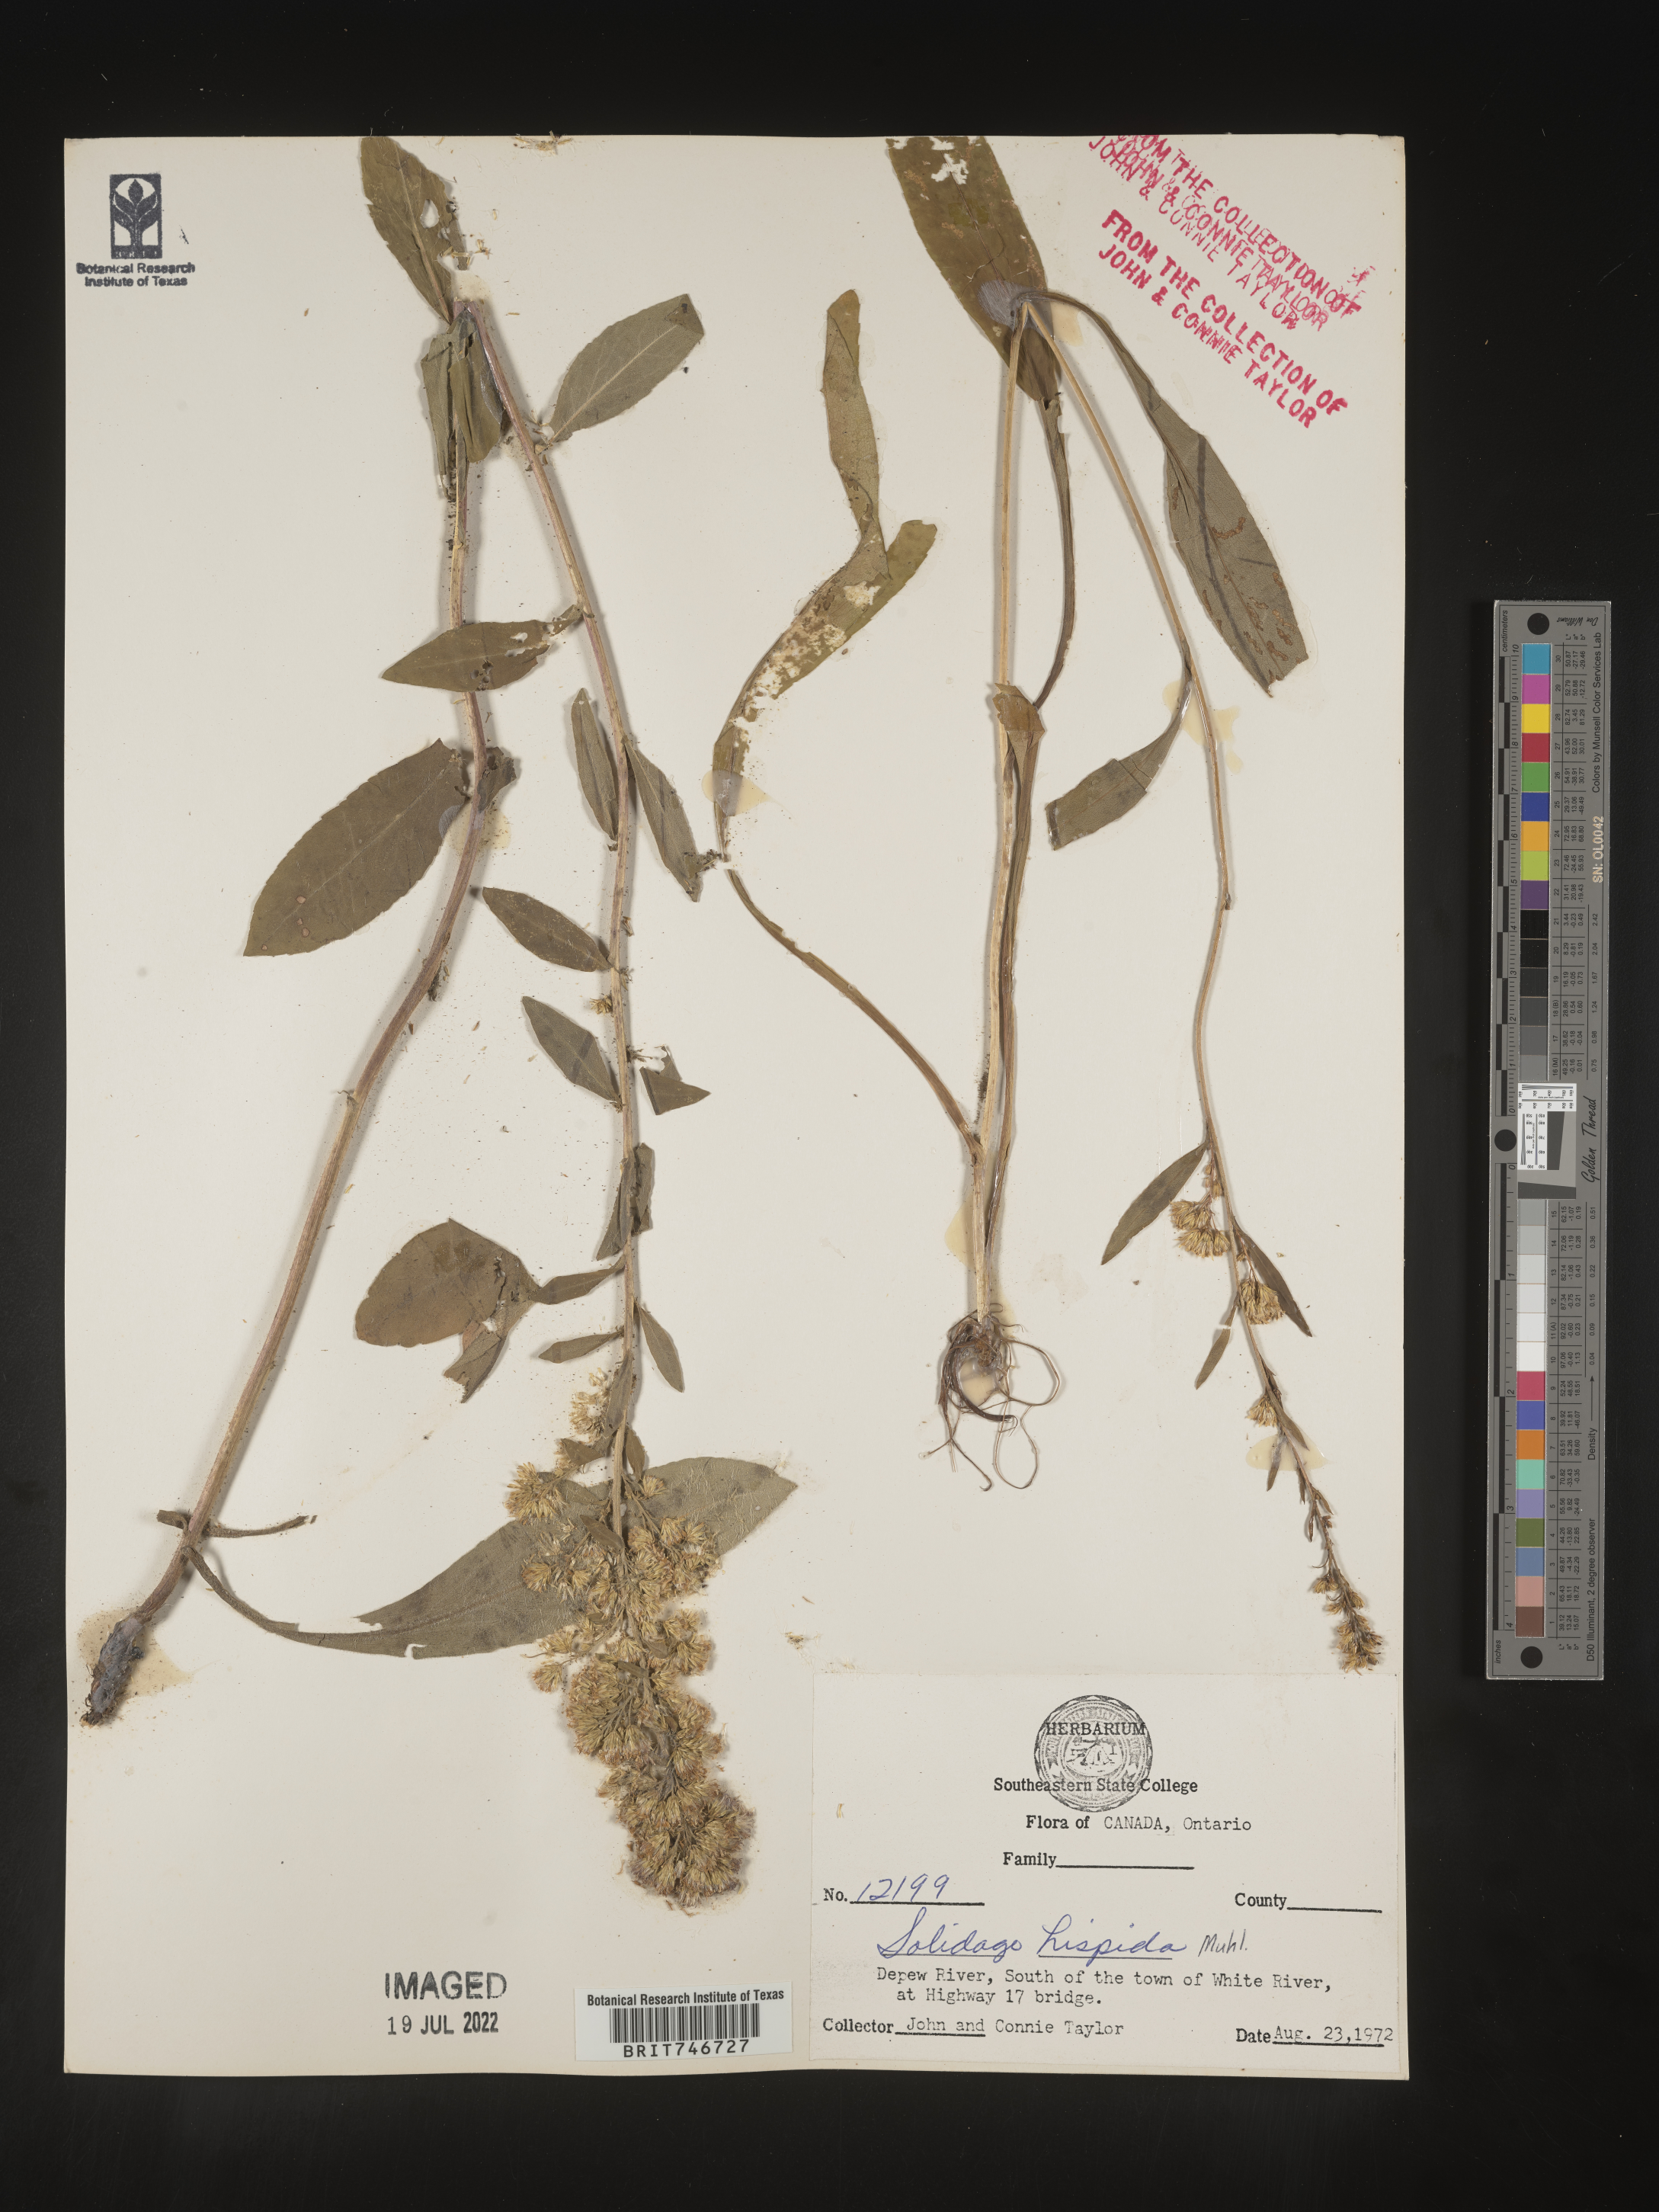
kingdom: Plantae
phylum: Tracheophyta
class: Magnoliopsida
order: Asterales
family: Asteraceae
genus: Solidago
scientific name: Solidago hispida
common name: Hairy goldenrod
